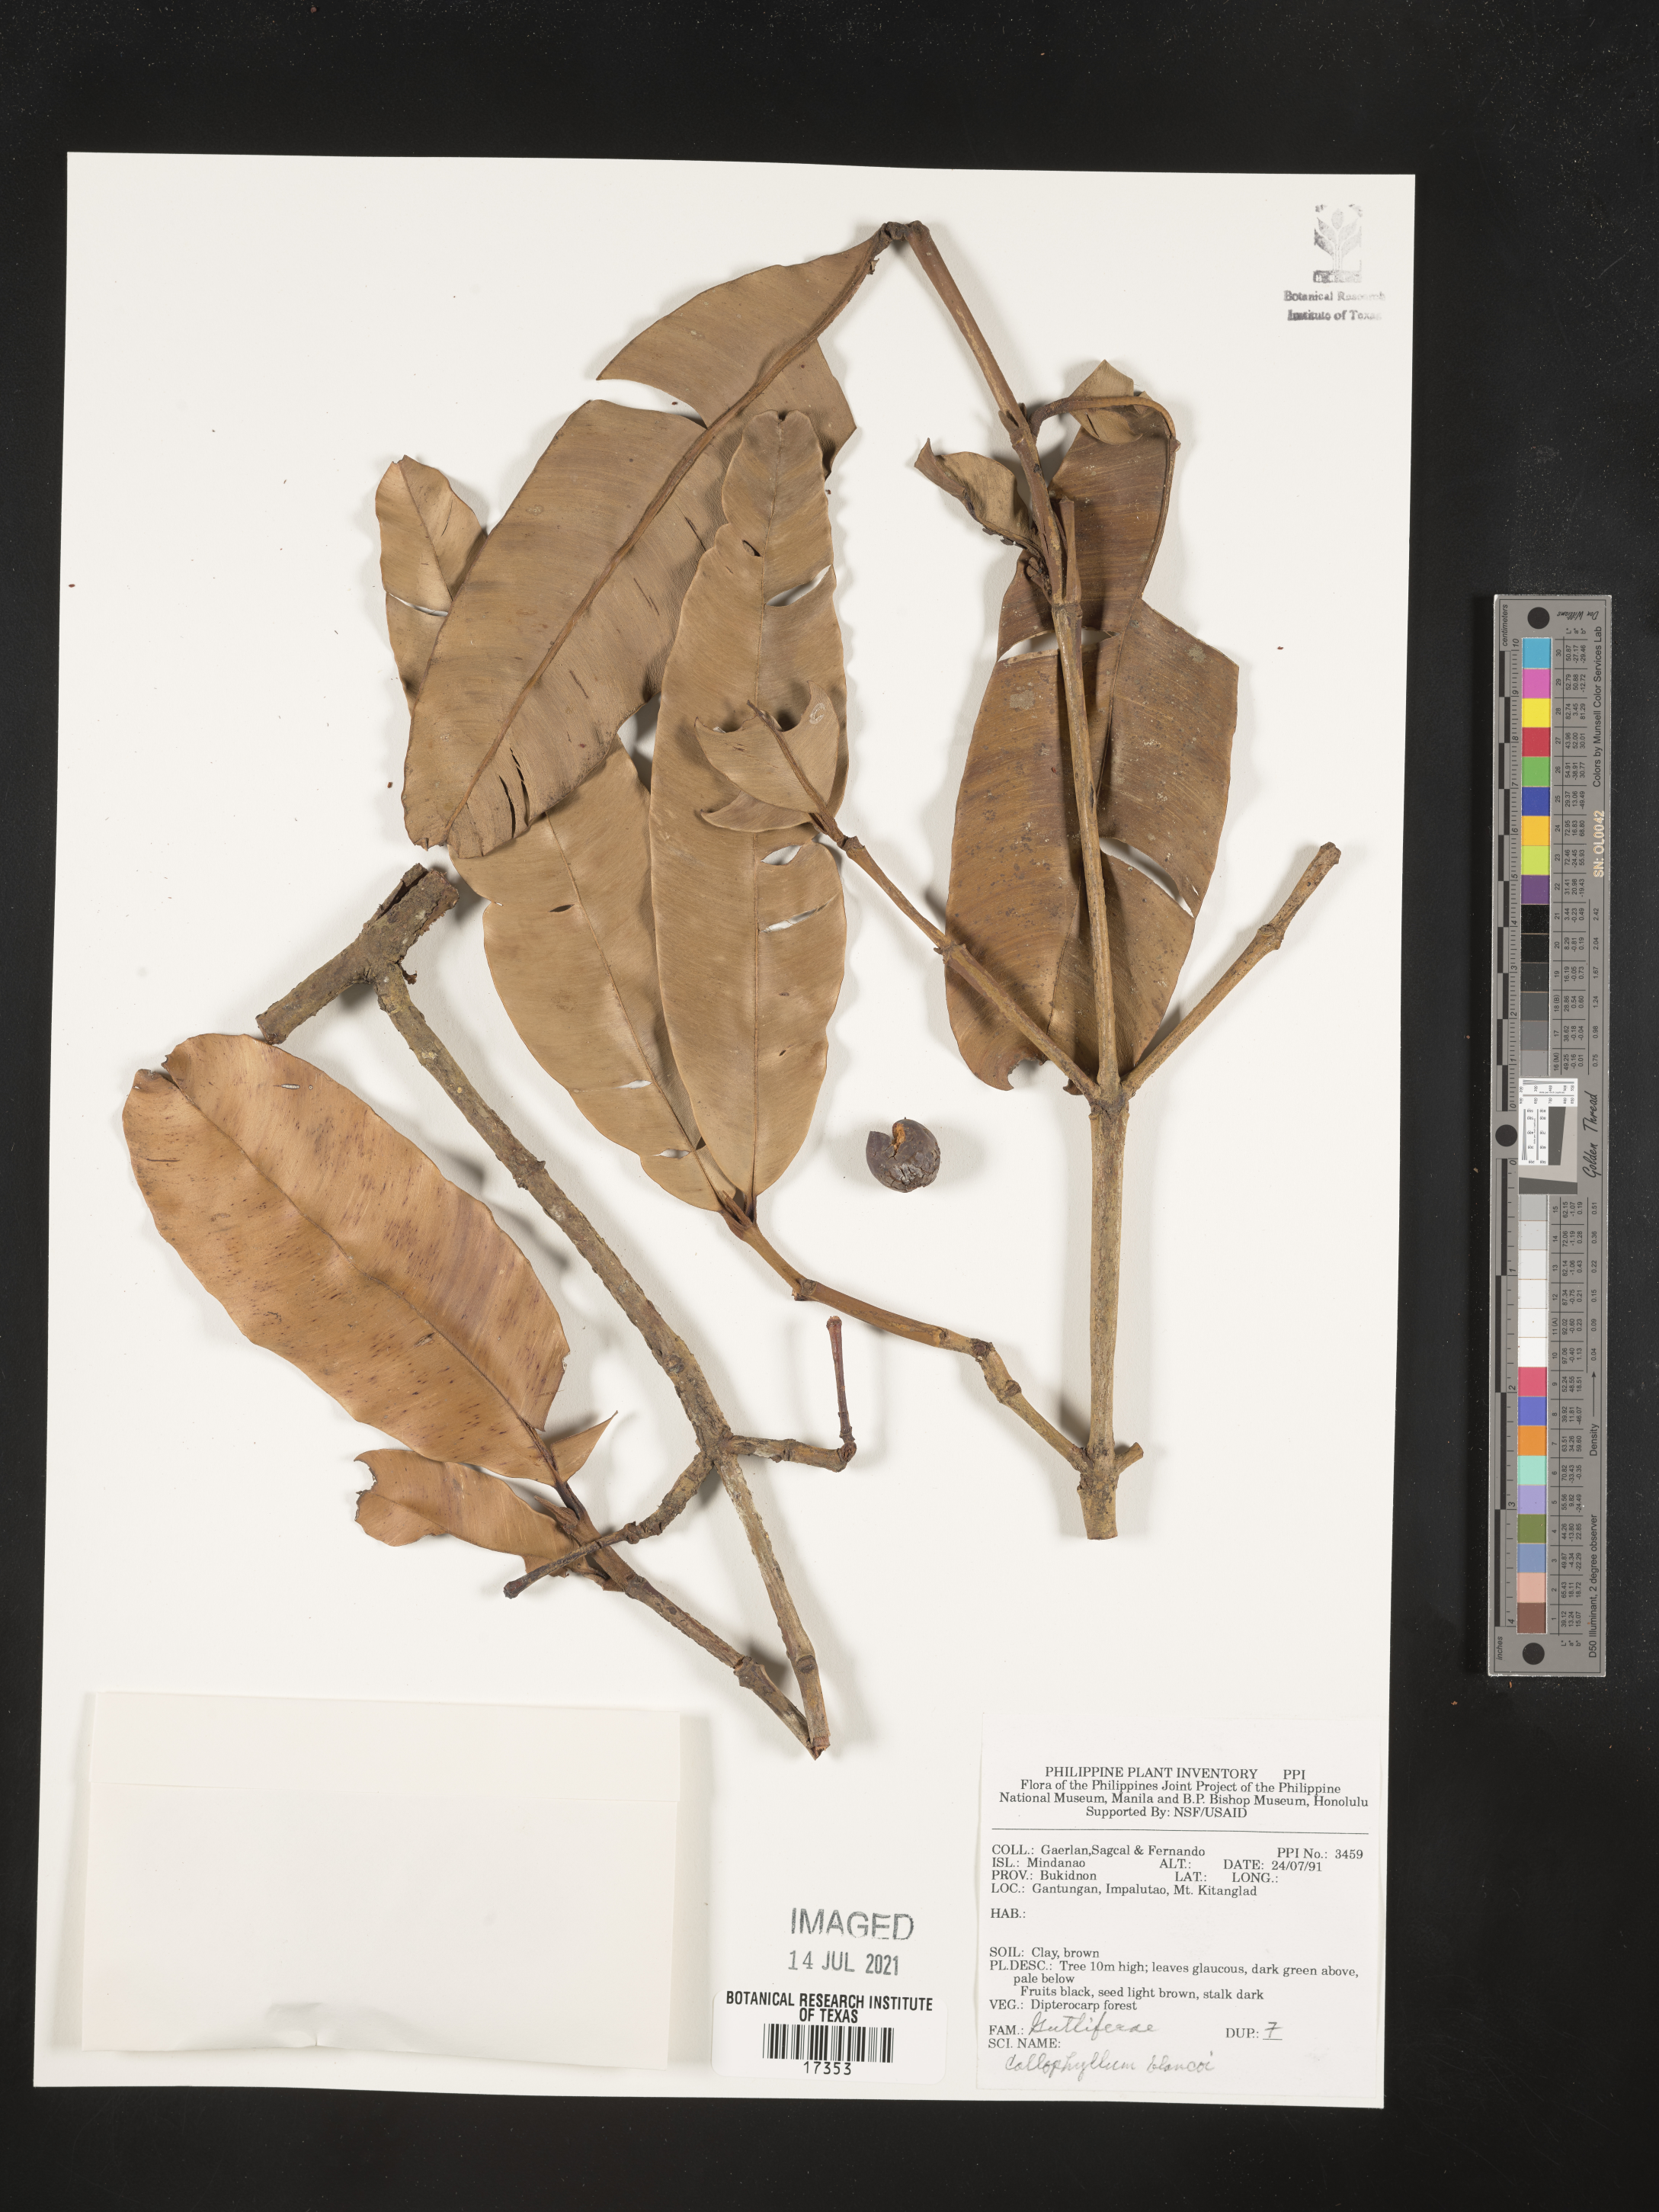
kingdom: Plantae
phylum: Tracheophyta
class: Magnoliopsida
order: Malpighiales
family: Calophyllaceae
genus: Calophyllum
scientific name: Calophyllum blancoi
